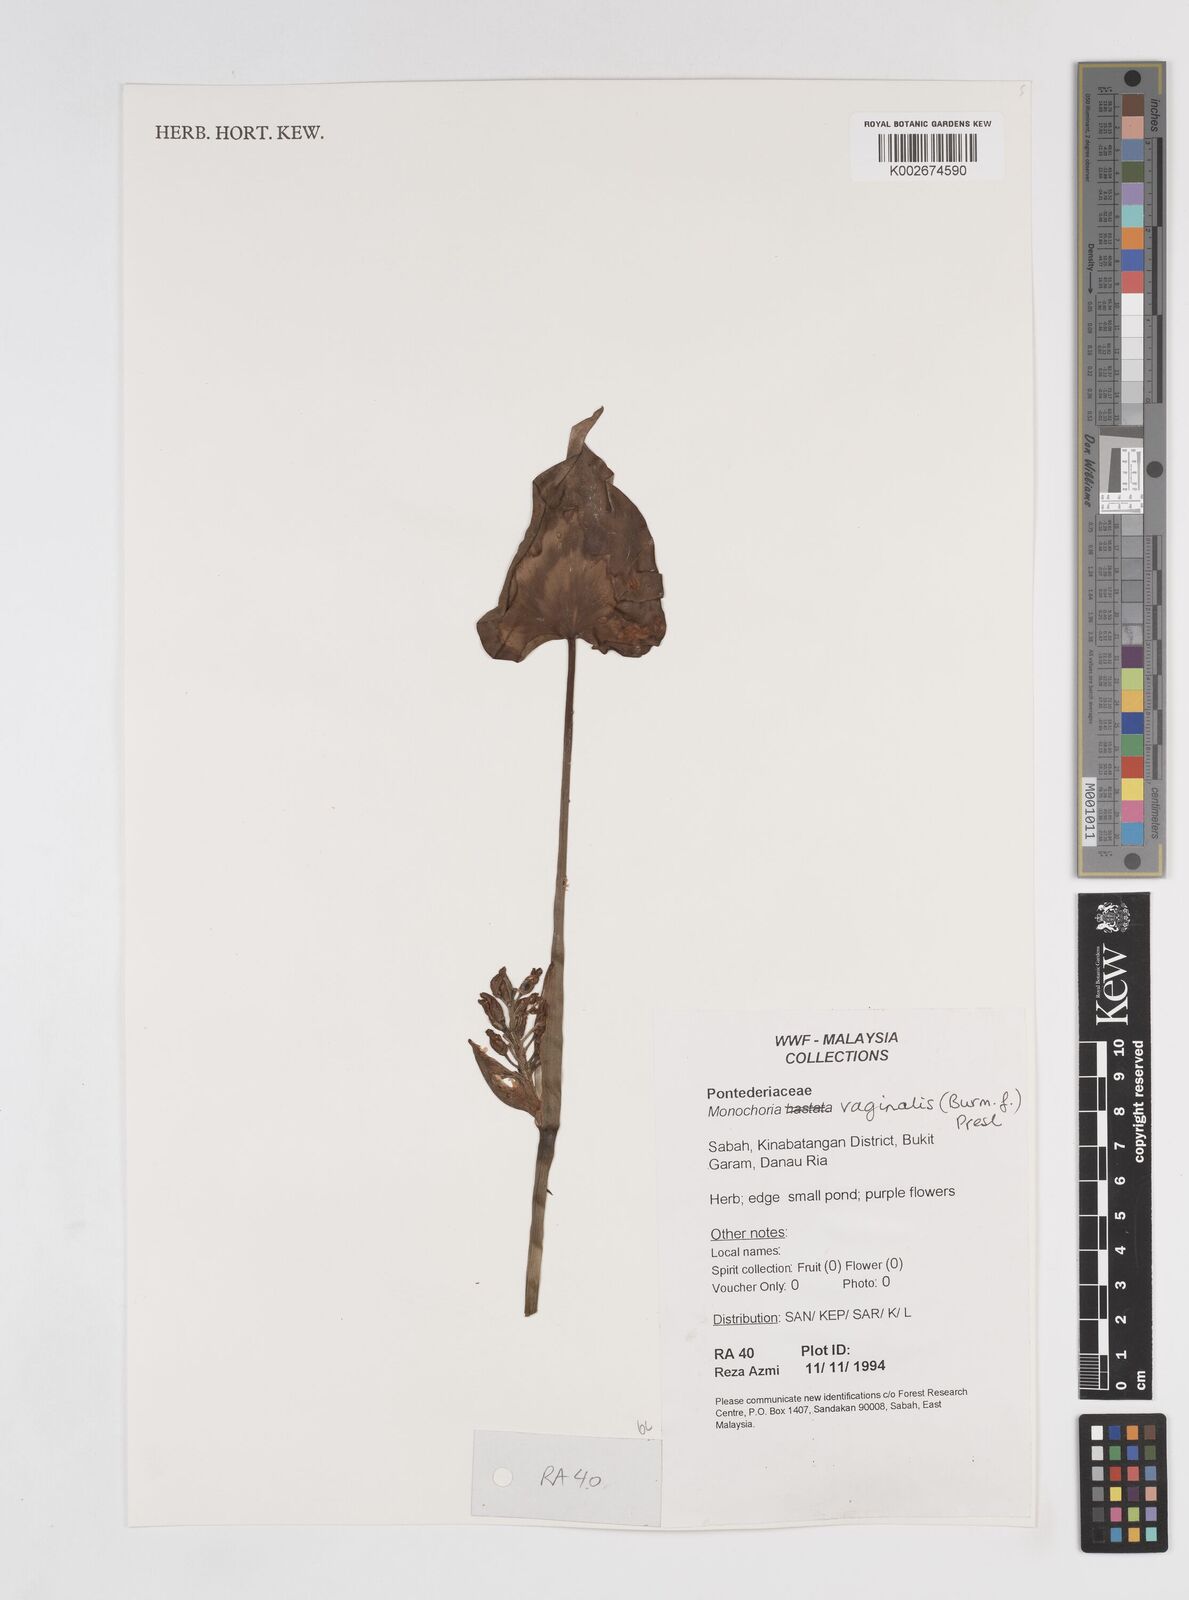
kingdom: Plantae
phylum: Tracheophyta
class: Liliopsida
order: Commelinales
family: Pontederiaceae
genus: Pontederia
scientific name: Pontederia vaginalis
